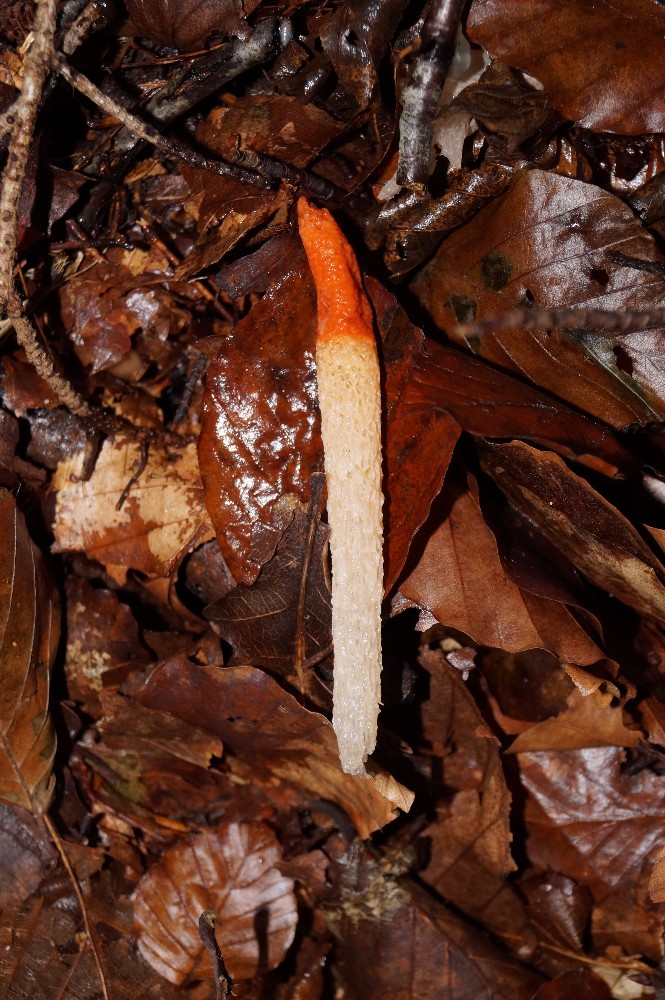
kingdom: Fungi
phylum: Basidiomycota
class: Agaricomycetes
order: Phallales
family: Phallaceae
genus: Mutinus
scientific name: Mutinus caninus
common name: hunde-stinksvamp
